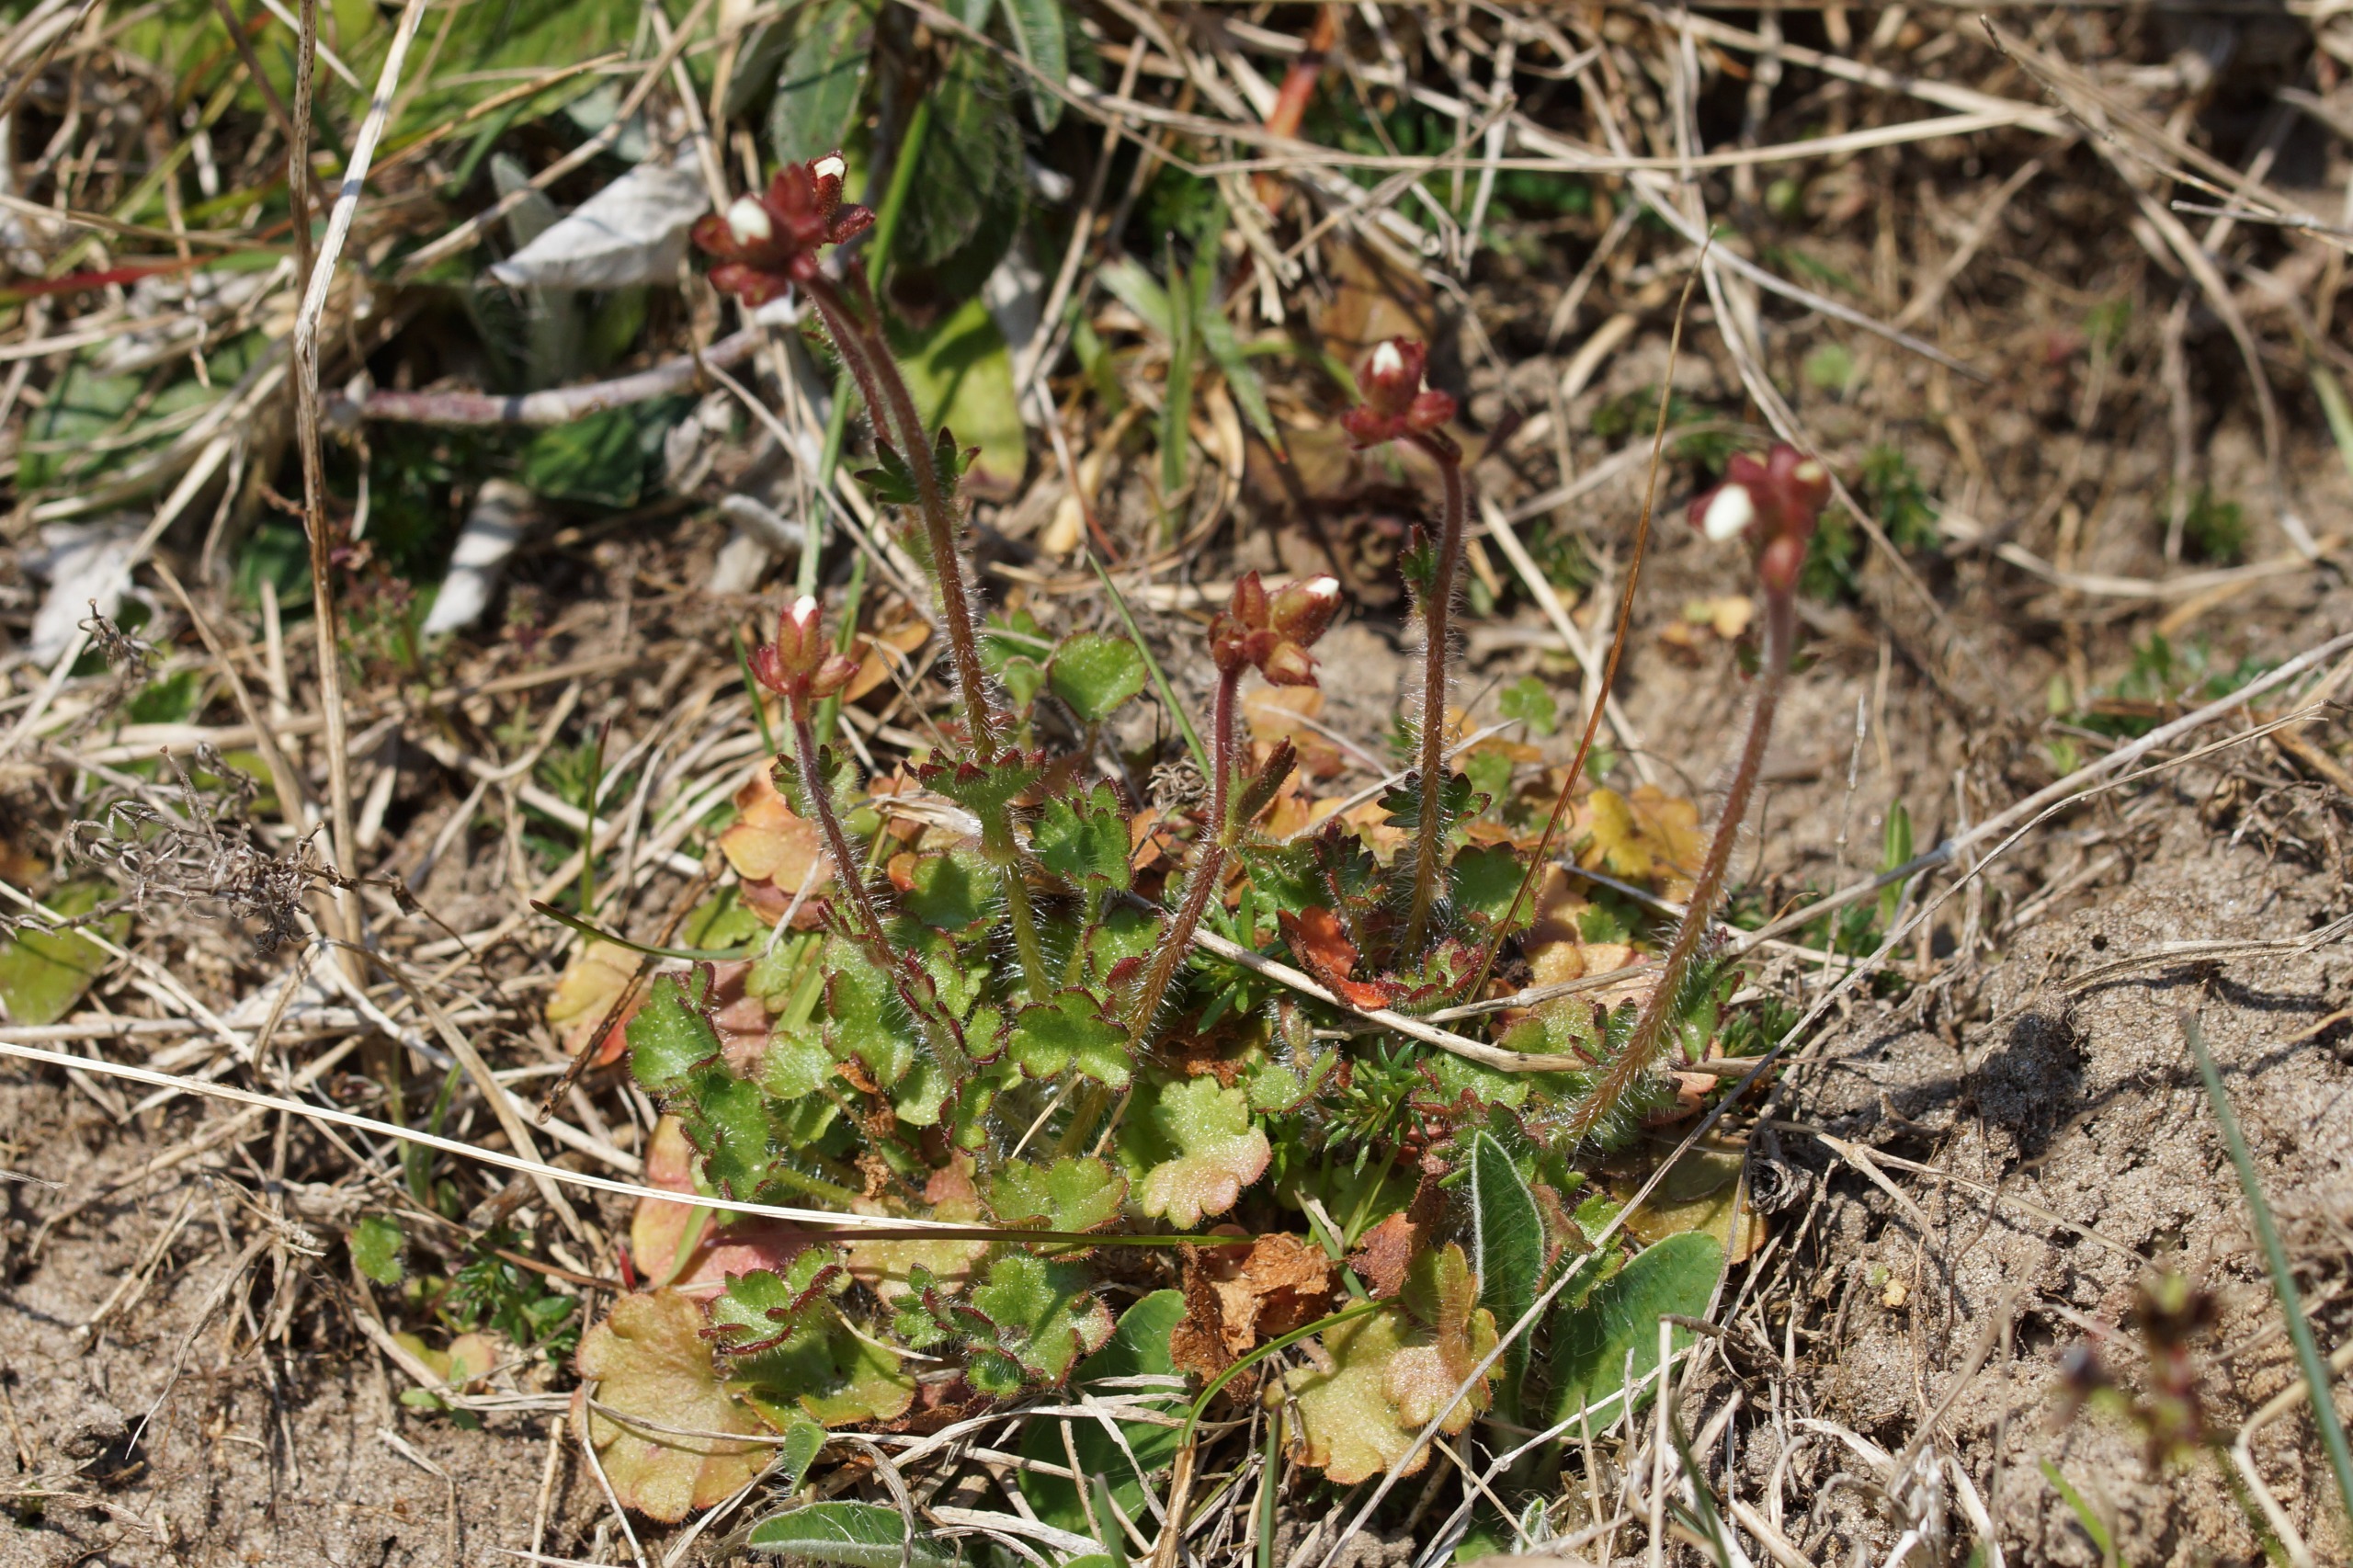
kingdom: Plantae
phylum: Tracheophyta
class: Magnoliopsida
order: Saxifragales
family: Saxifragaceae
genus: Saxifraga
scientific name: Saxifraga granulata
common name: Kornet stenbræk
